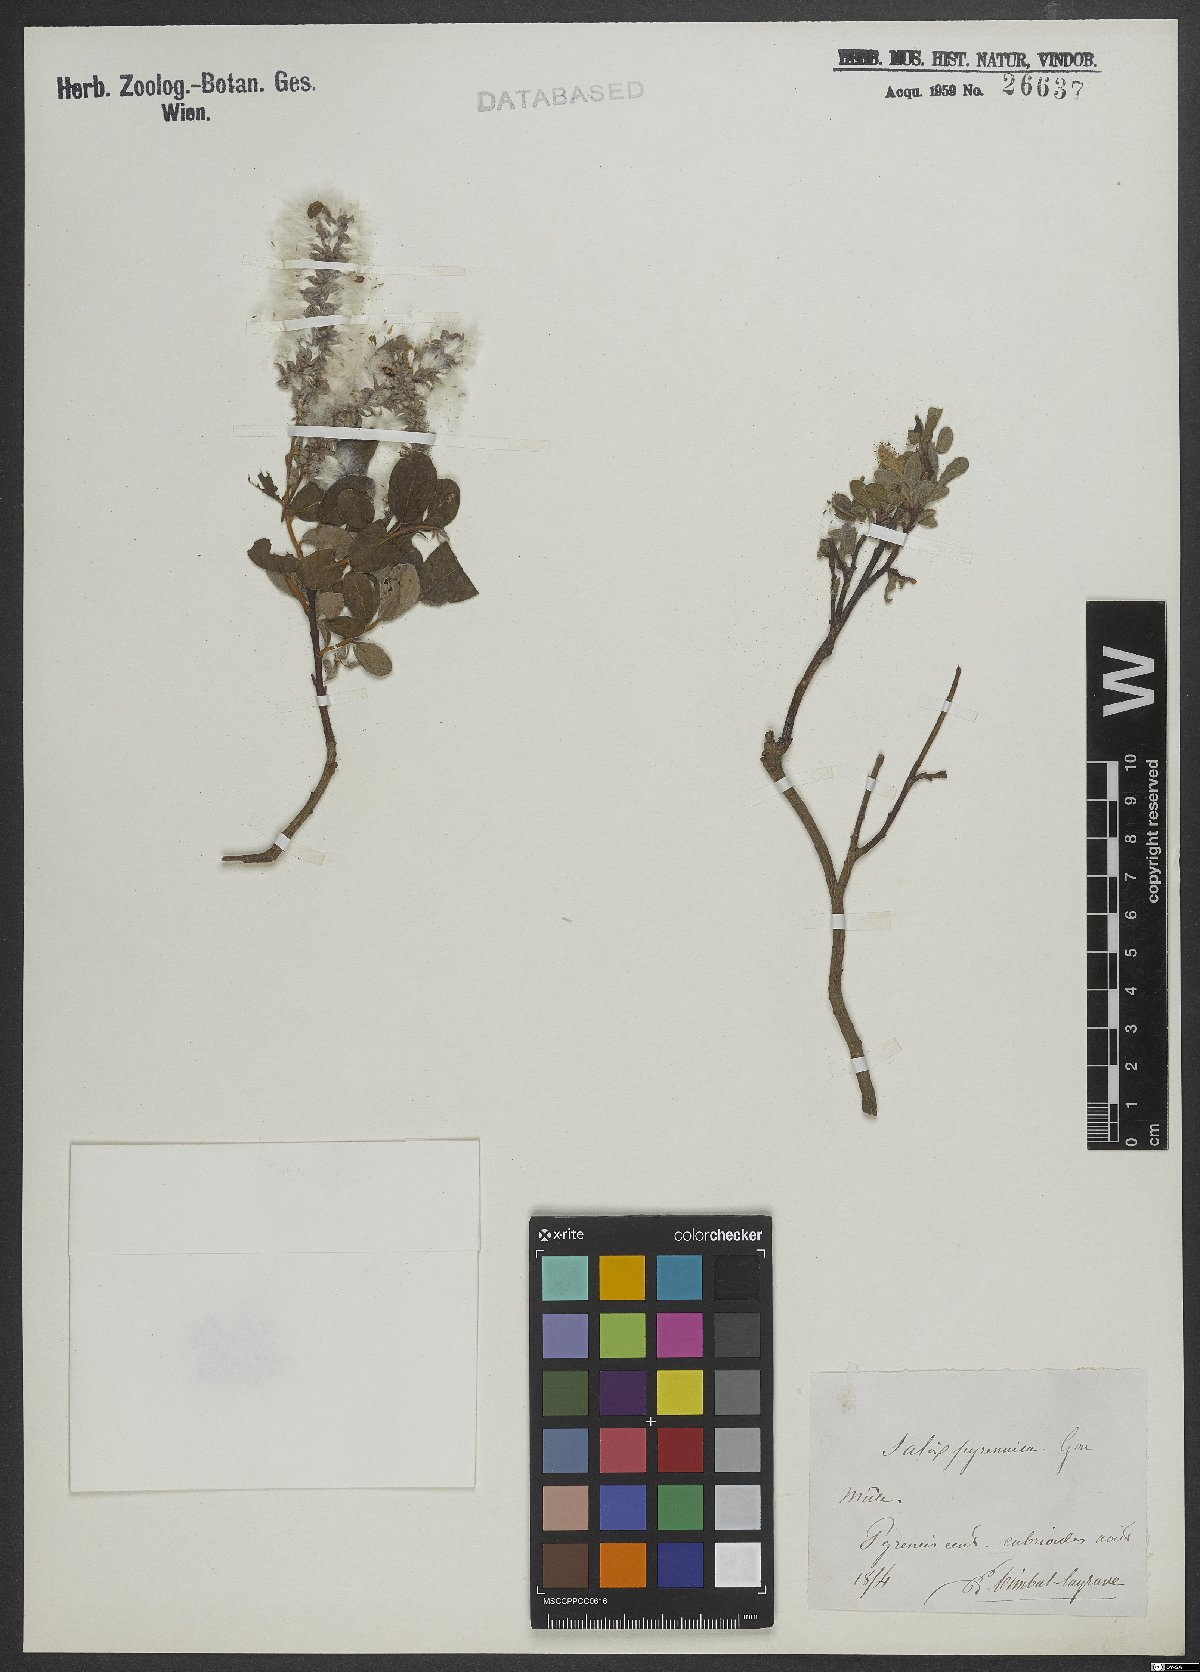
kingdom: Plantae
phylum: Tracheophyta
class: Magnoliopsida
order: Malpighiales
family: Salicaceae
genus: Salix
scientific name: Salix pyrenaica
